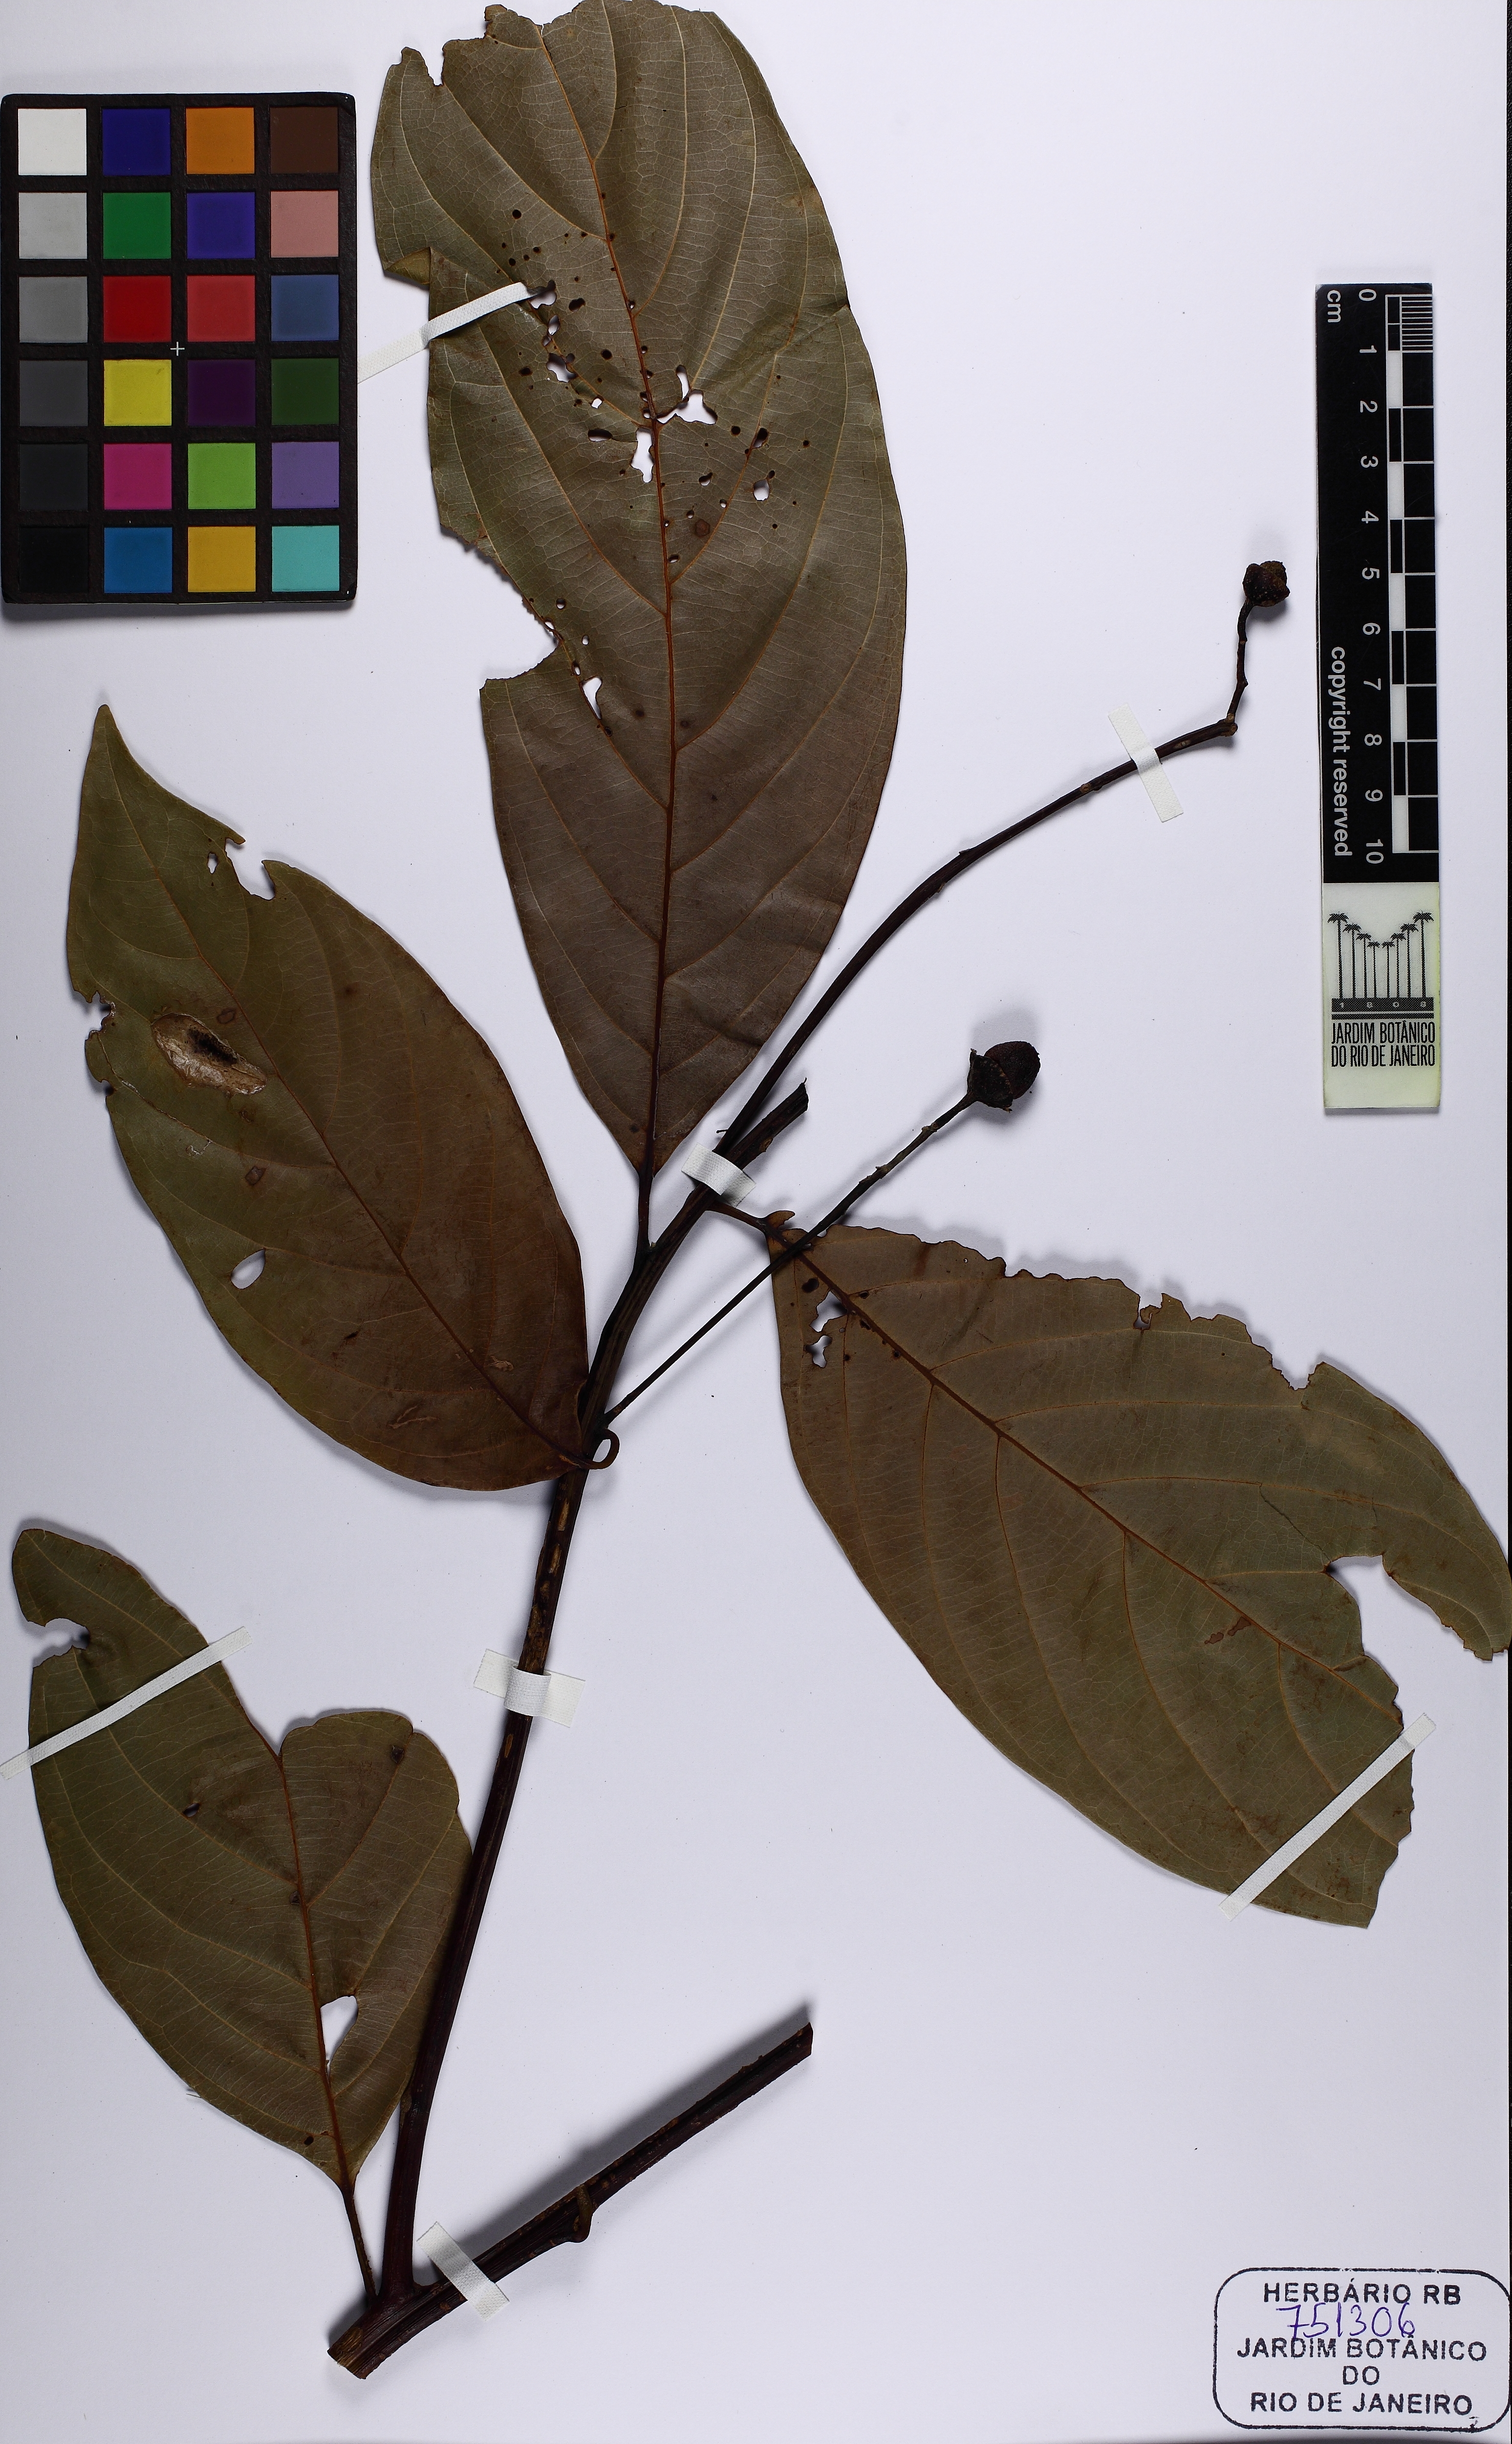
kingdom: Plantae
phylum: Tracheophyta
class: Magnoliopsida
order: Laurales
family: Lauraceae
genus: Nectandra
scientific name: Nectandra pulverulenta
